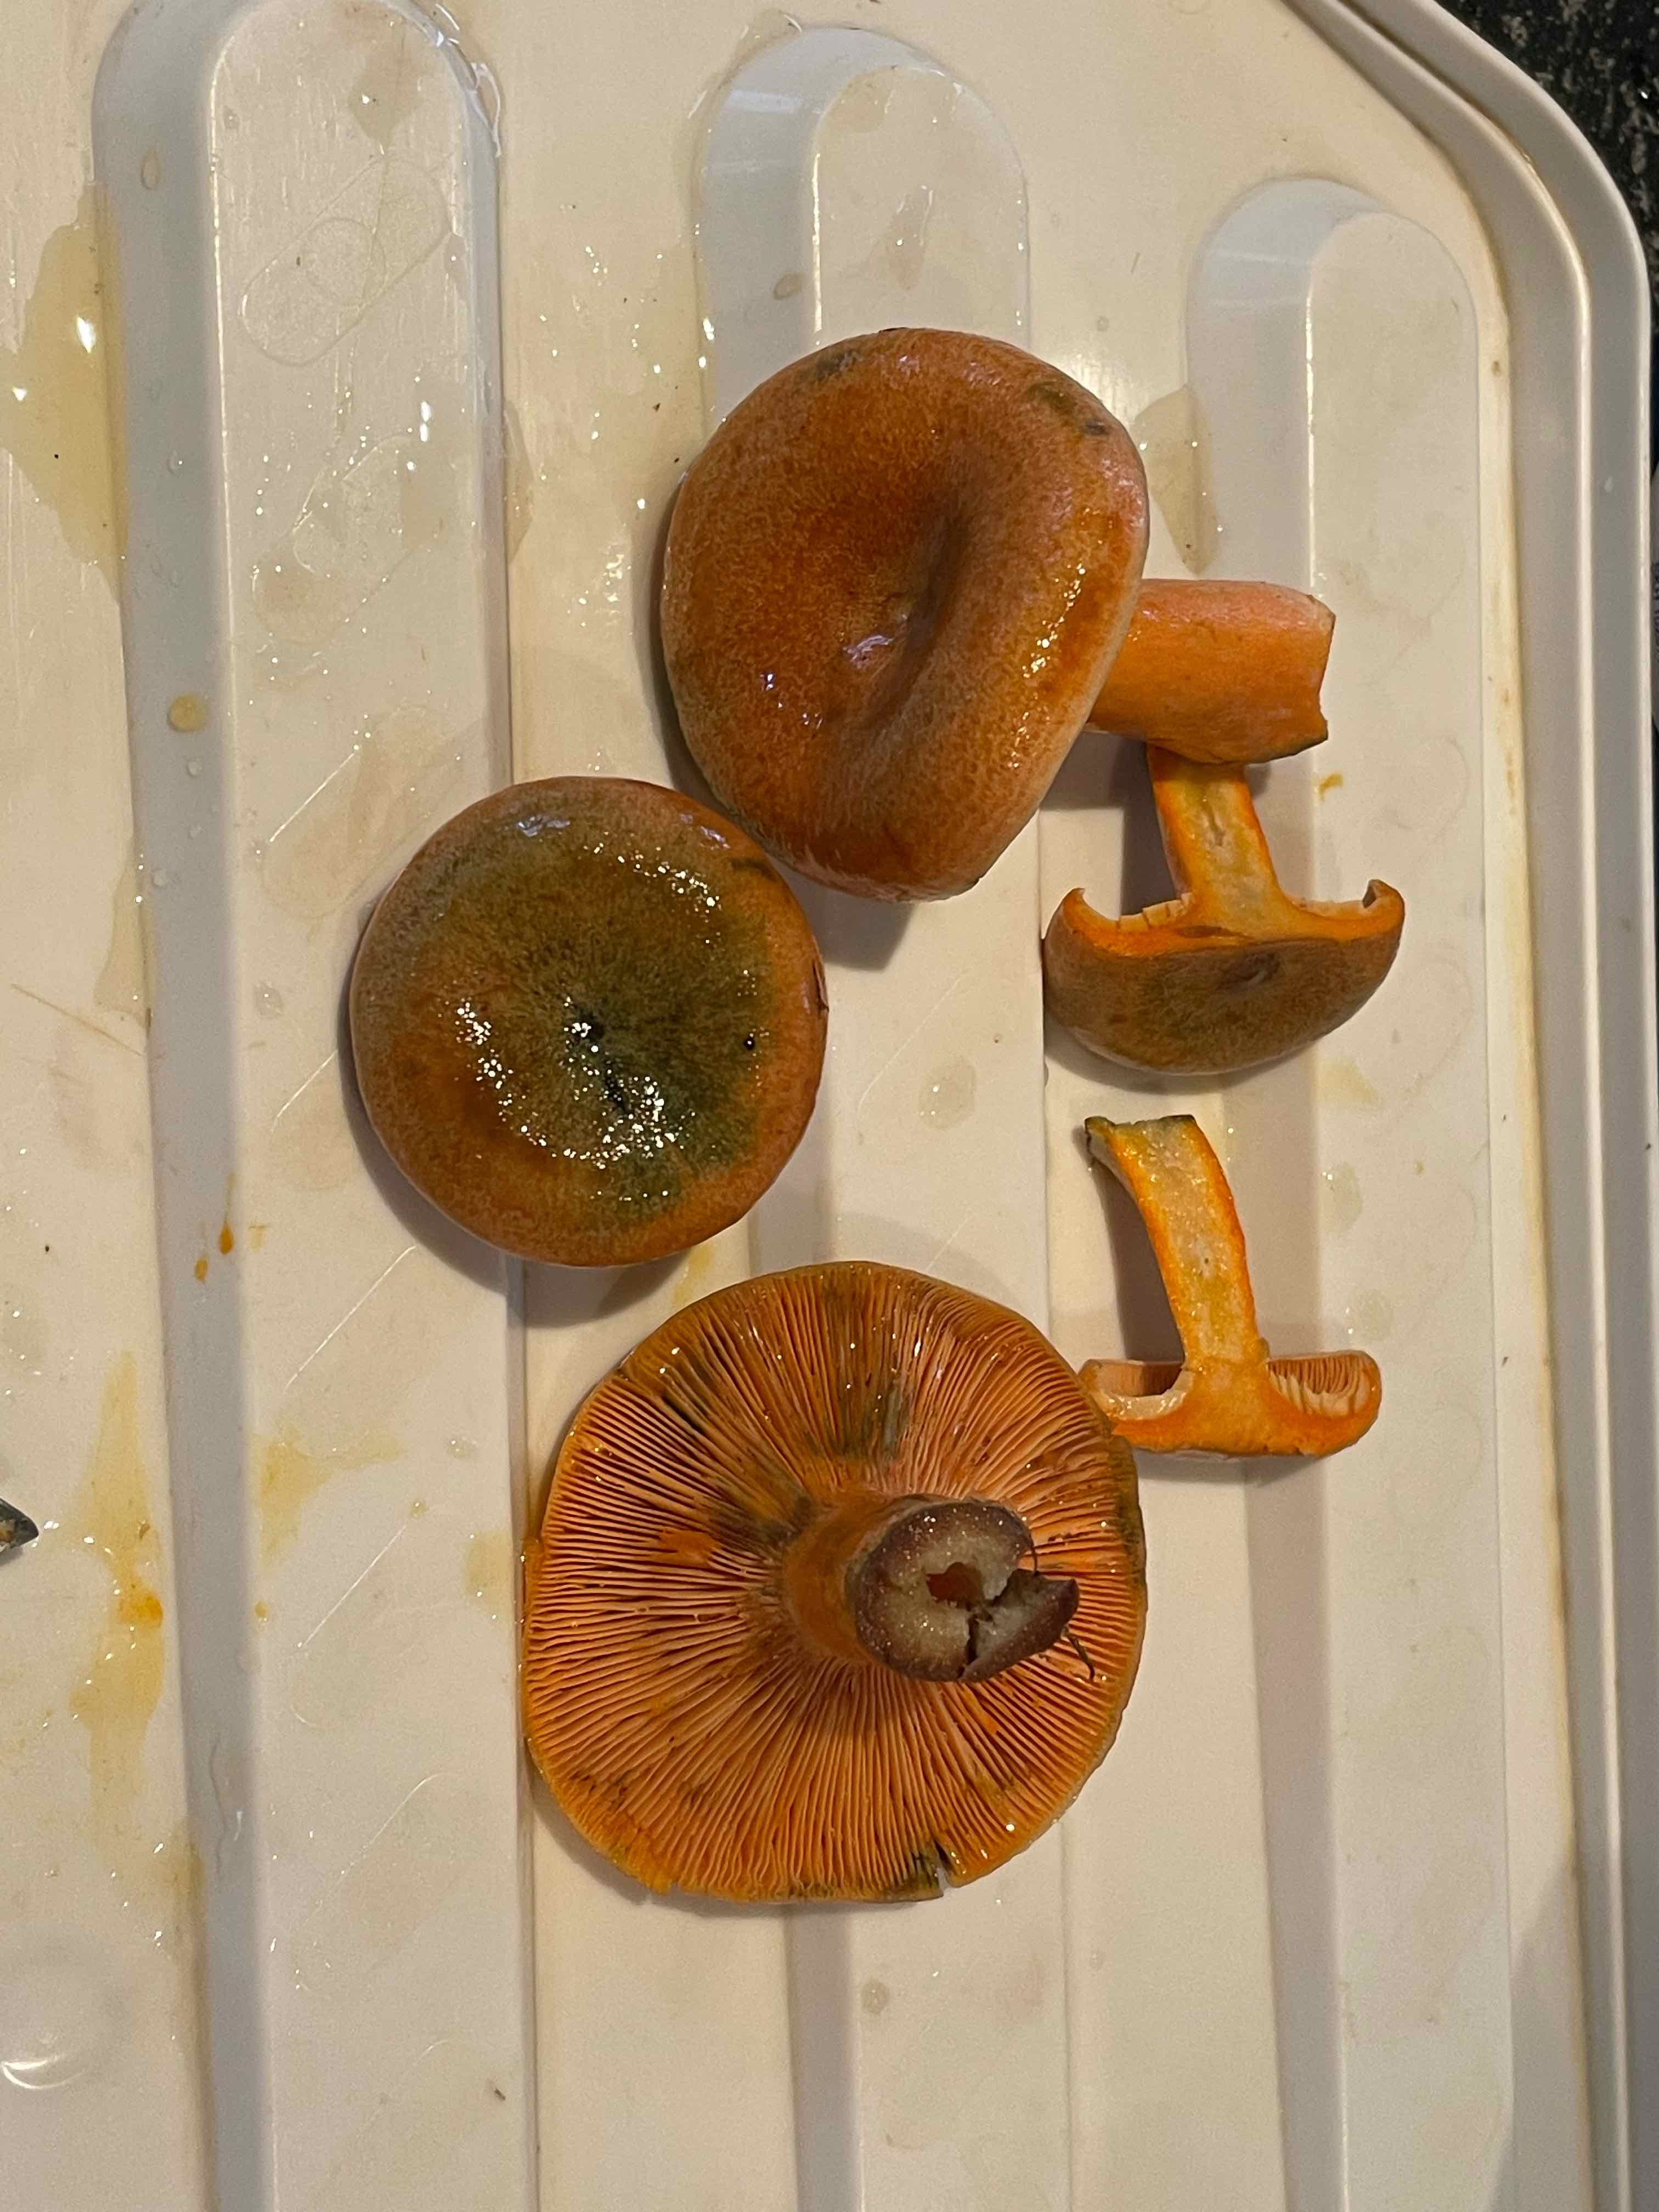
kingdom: Fungi
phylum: Basidiomycota
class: Agaricomycetes
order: Russulales
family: Russulaceae
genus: Lactarius
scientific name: Lactarius deterrimus
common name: gran-mælkehat
